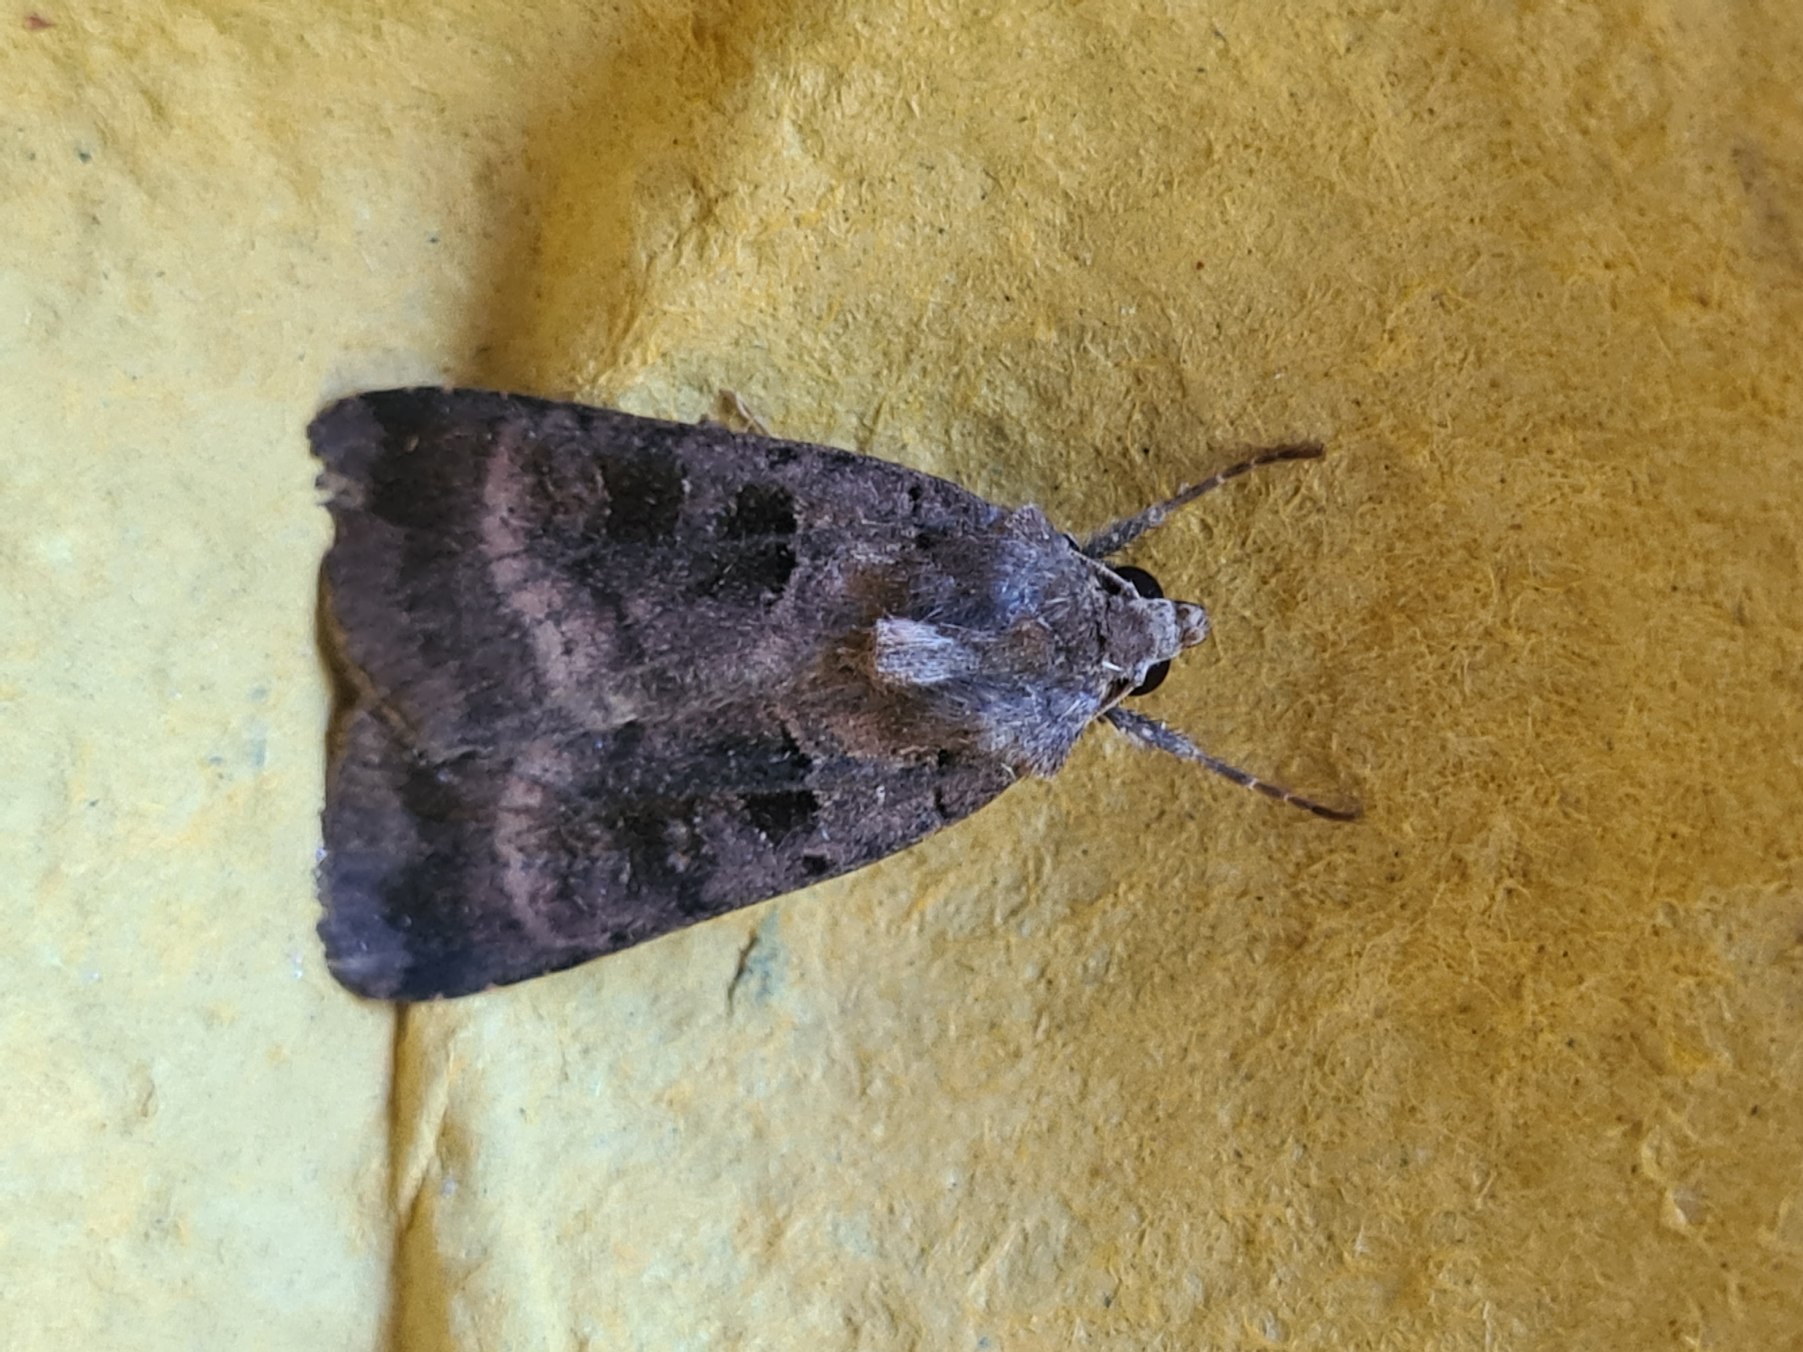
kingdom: Animalia
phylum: Arthropoda
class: Insecta
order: Lepidoptera
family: Noctuidae
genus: Xestia
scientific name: Xestia stigmatica
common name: Rhombe-glansugle
